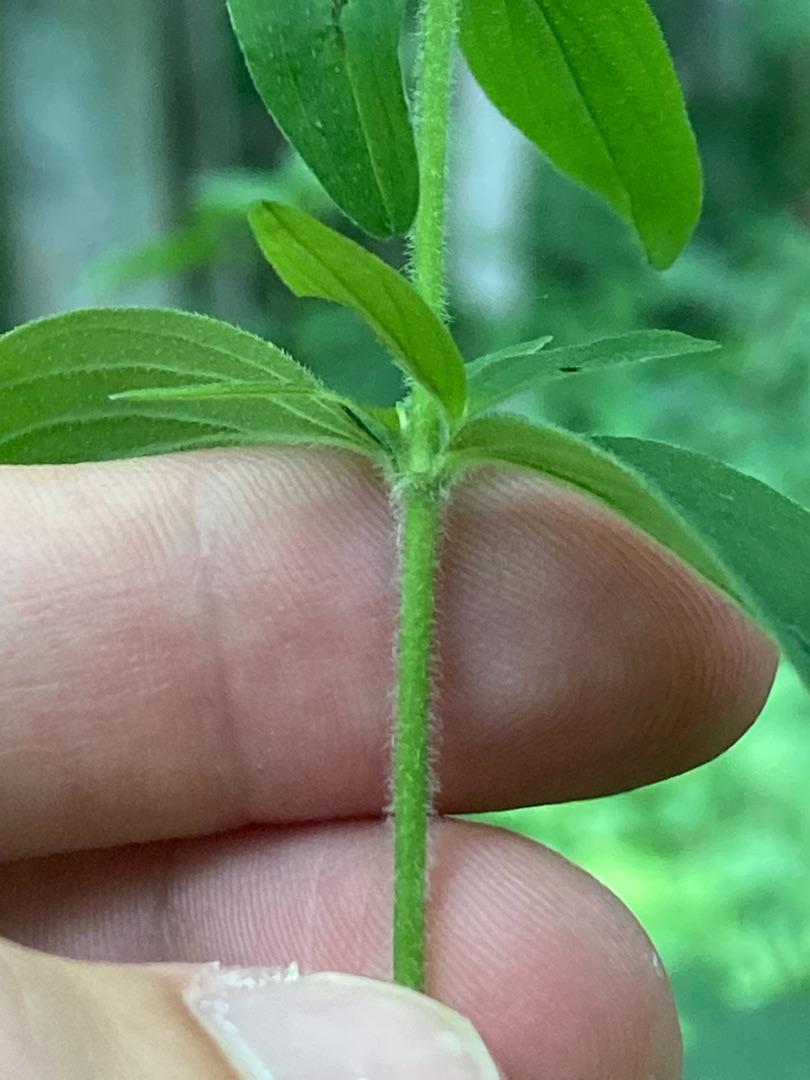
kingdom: Plantae
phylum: Tracheophyta
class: Magnoliopsida
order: Malpighiales
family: Hypericaceae
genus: Hypericum
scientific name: Hypericum hirsutum
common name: Lådden perikon
